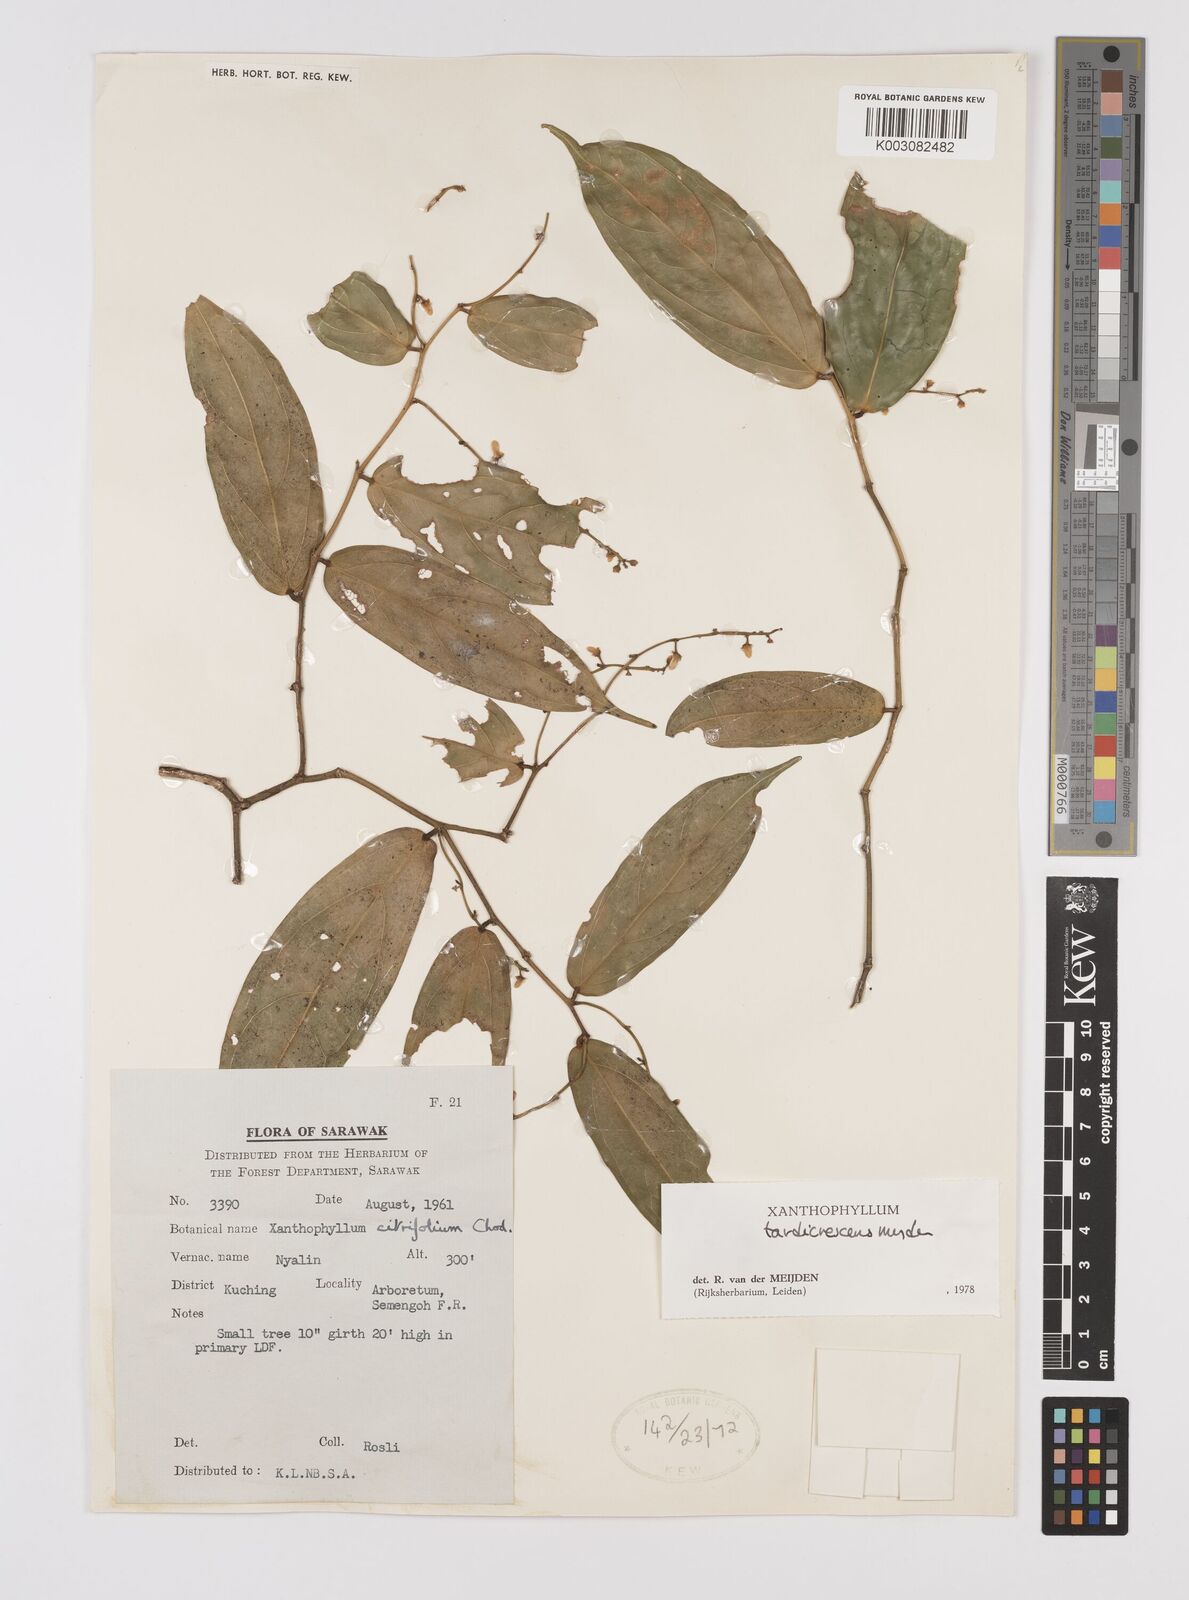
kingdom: Plantae
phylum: Tracheophyta
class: Magnoliopsida
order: Fabales
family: Polygalaceae
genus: Xanthophyllum
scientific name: Xanthophyllum tardicrescens
